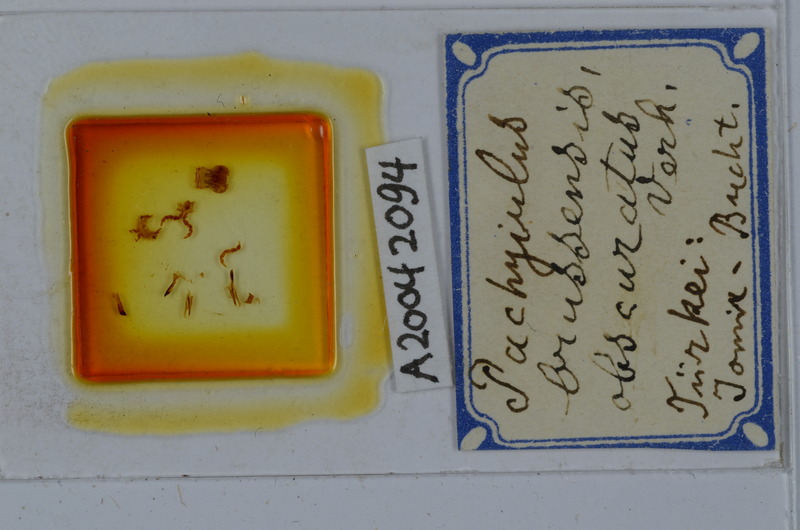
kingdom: Animalia
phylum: Arthropoda
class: Diplopoda
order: Julida
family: Julidae
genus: Pachyiulus
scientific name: Pachyiulus brussensis
